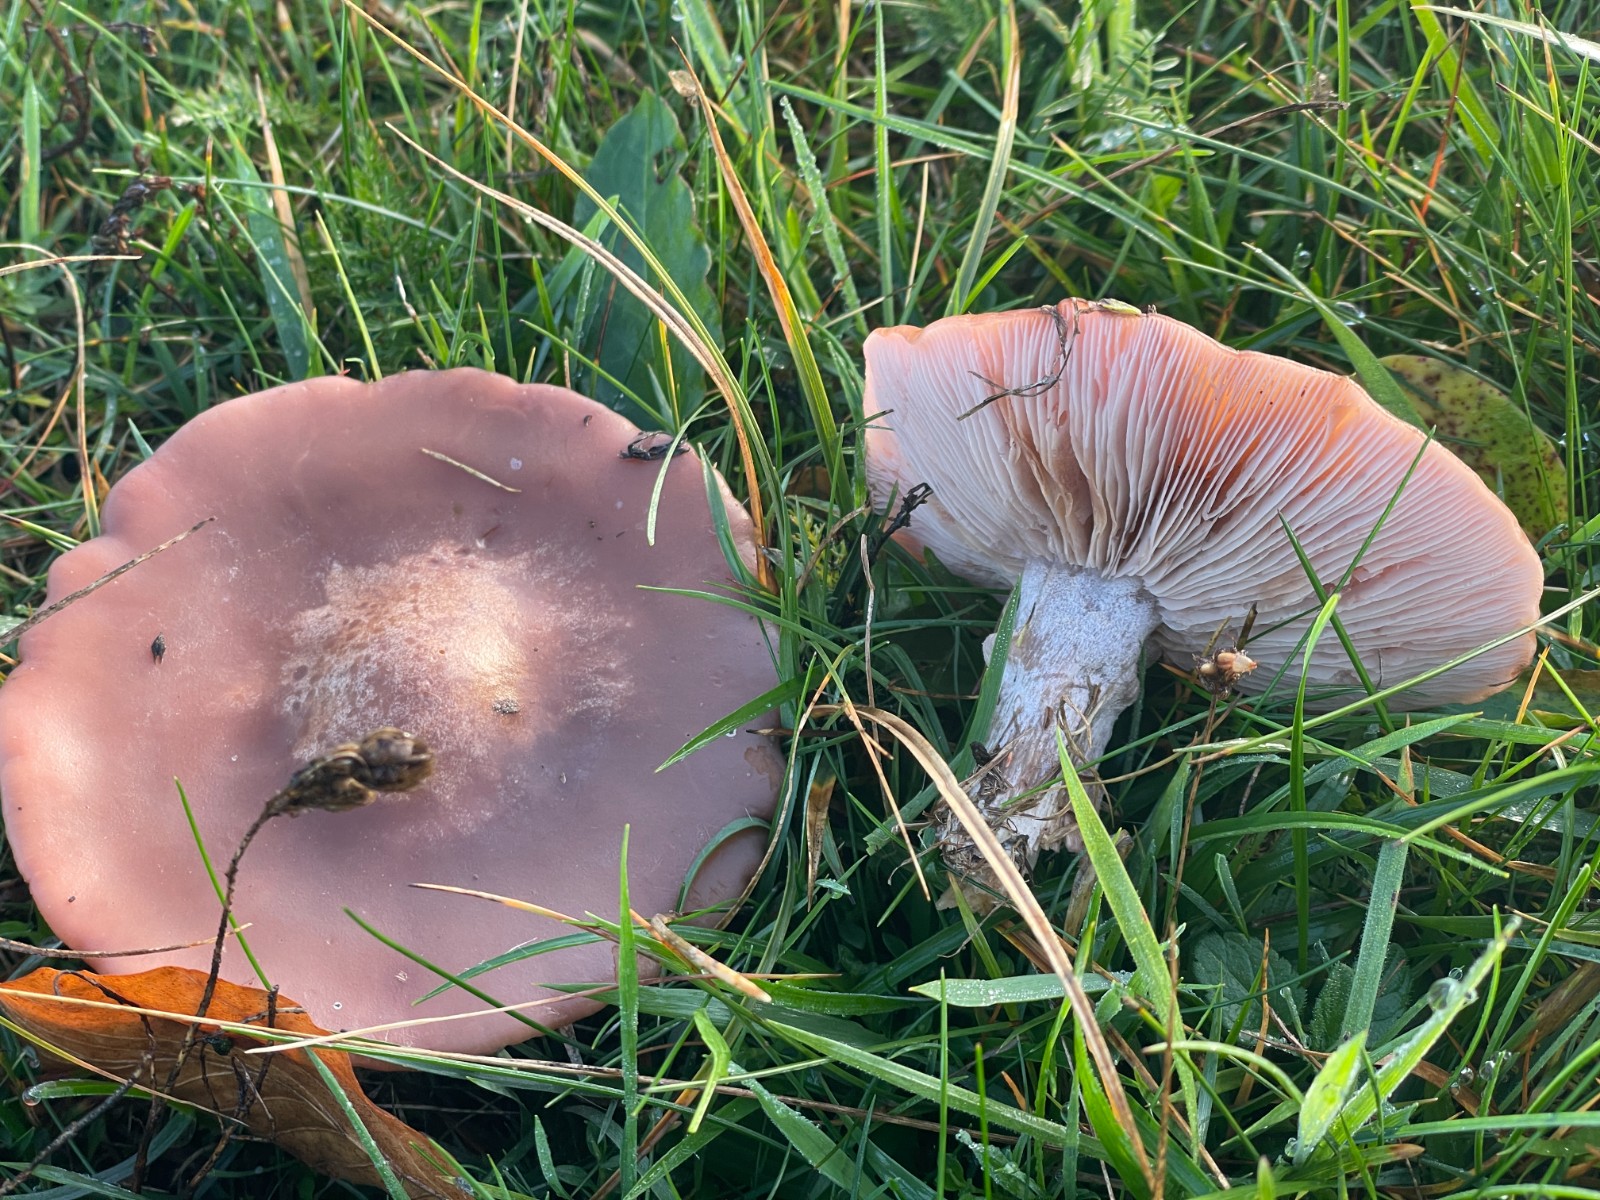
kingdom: Fungi
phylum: Basidiomycota
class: Agaricomycetes
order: Agaricales
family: Tricholomataceae
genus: Lepista
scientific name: Lepista nuda
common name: violet hekseringshat
